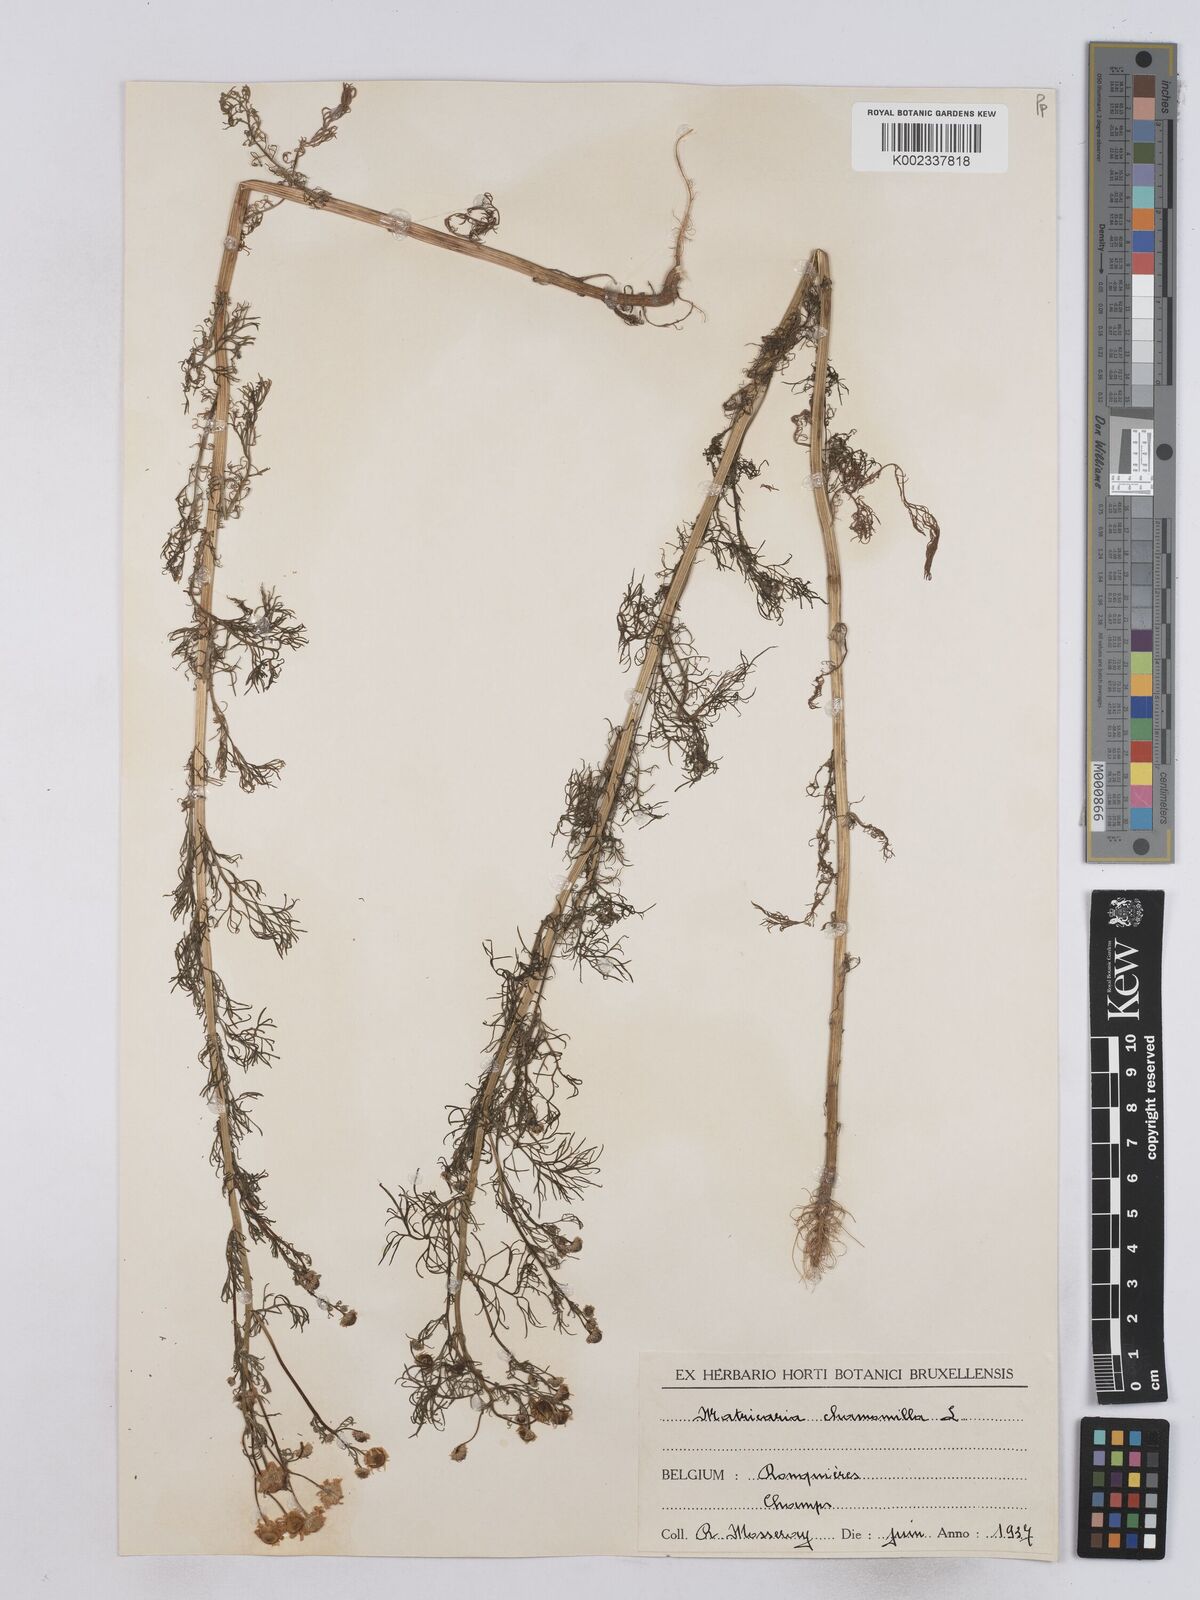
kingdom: Plantae
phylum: Tracheophyta
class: Magnoliopsida
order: Asterales
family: Asteraceae
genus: Matricaria
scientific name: Matricaria chamomilla
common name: Scented mayweed
